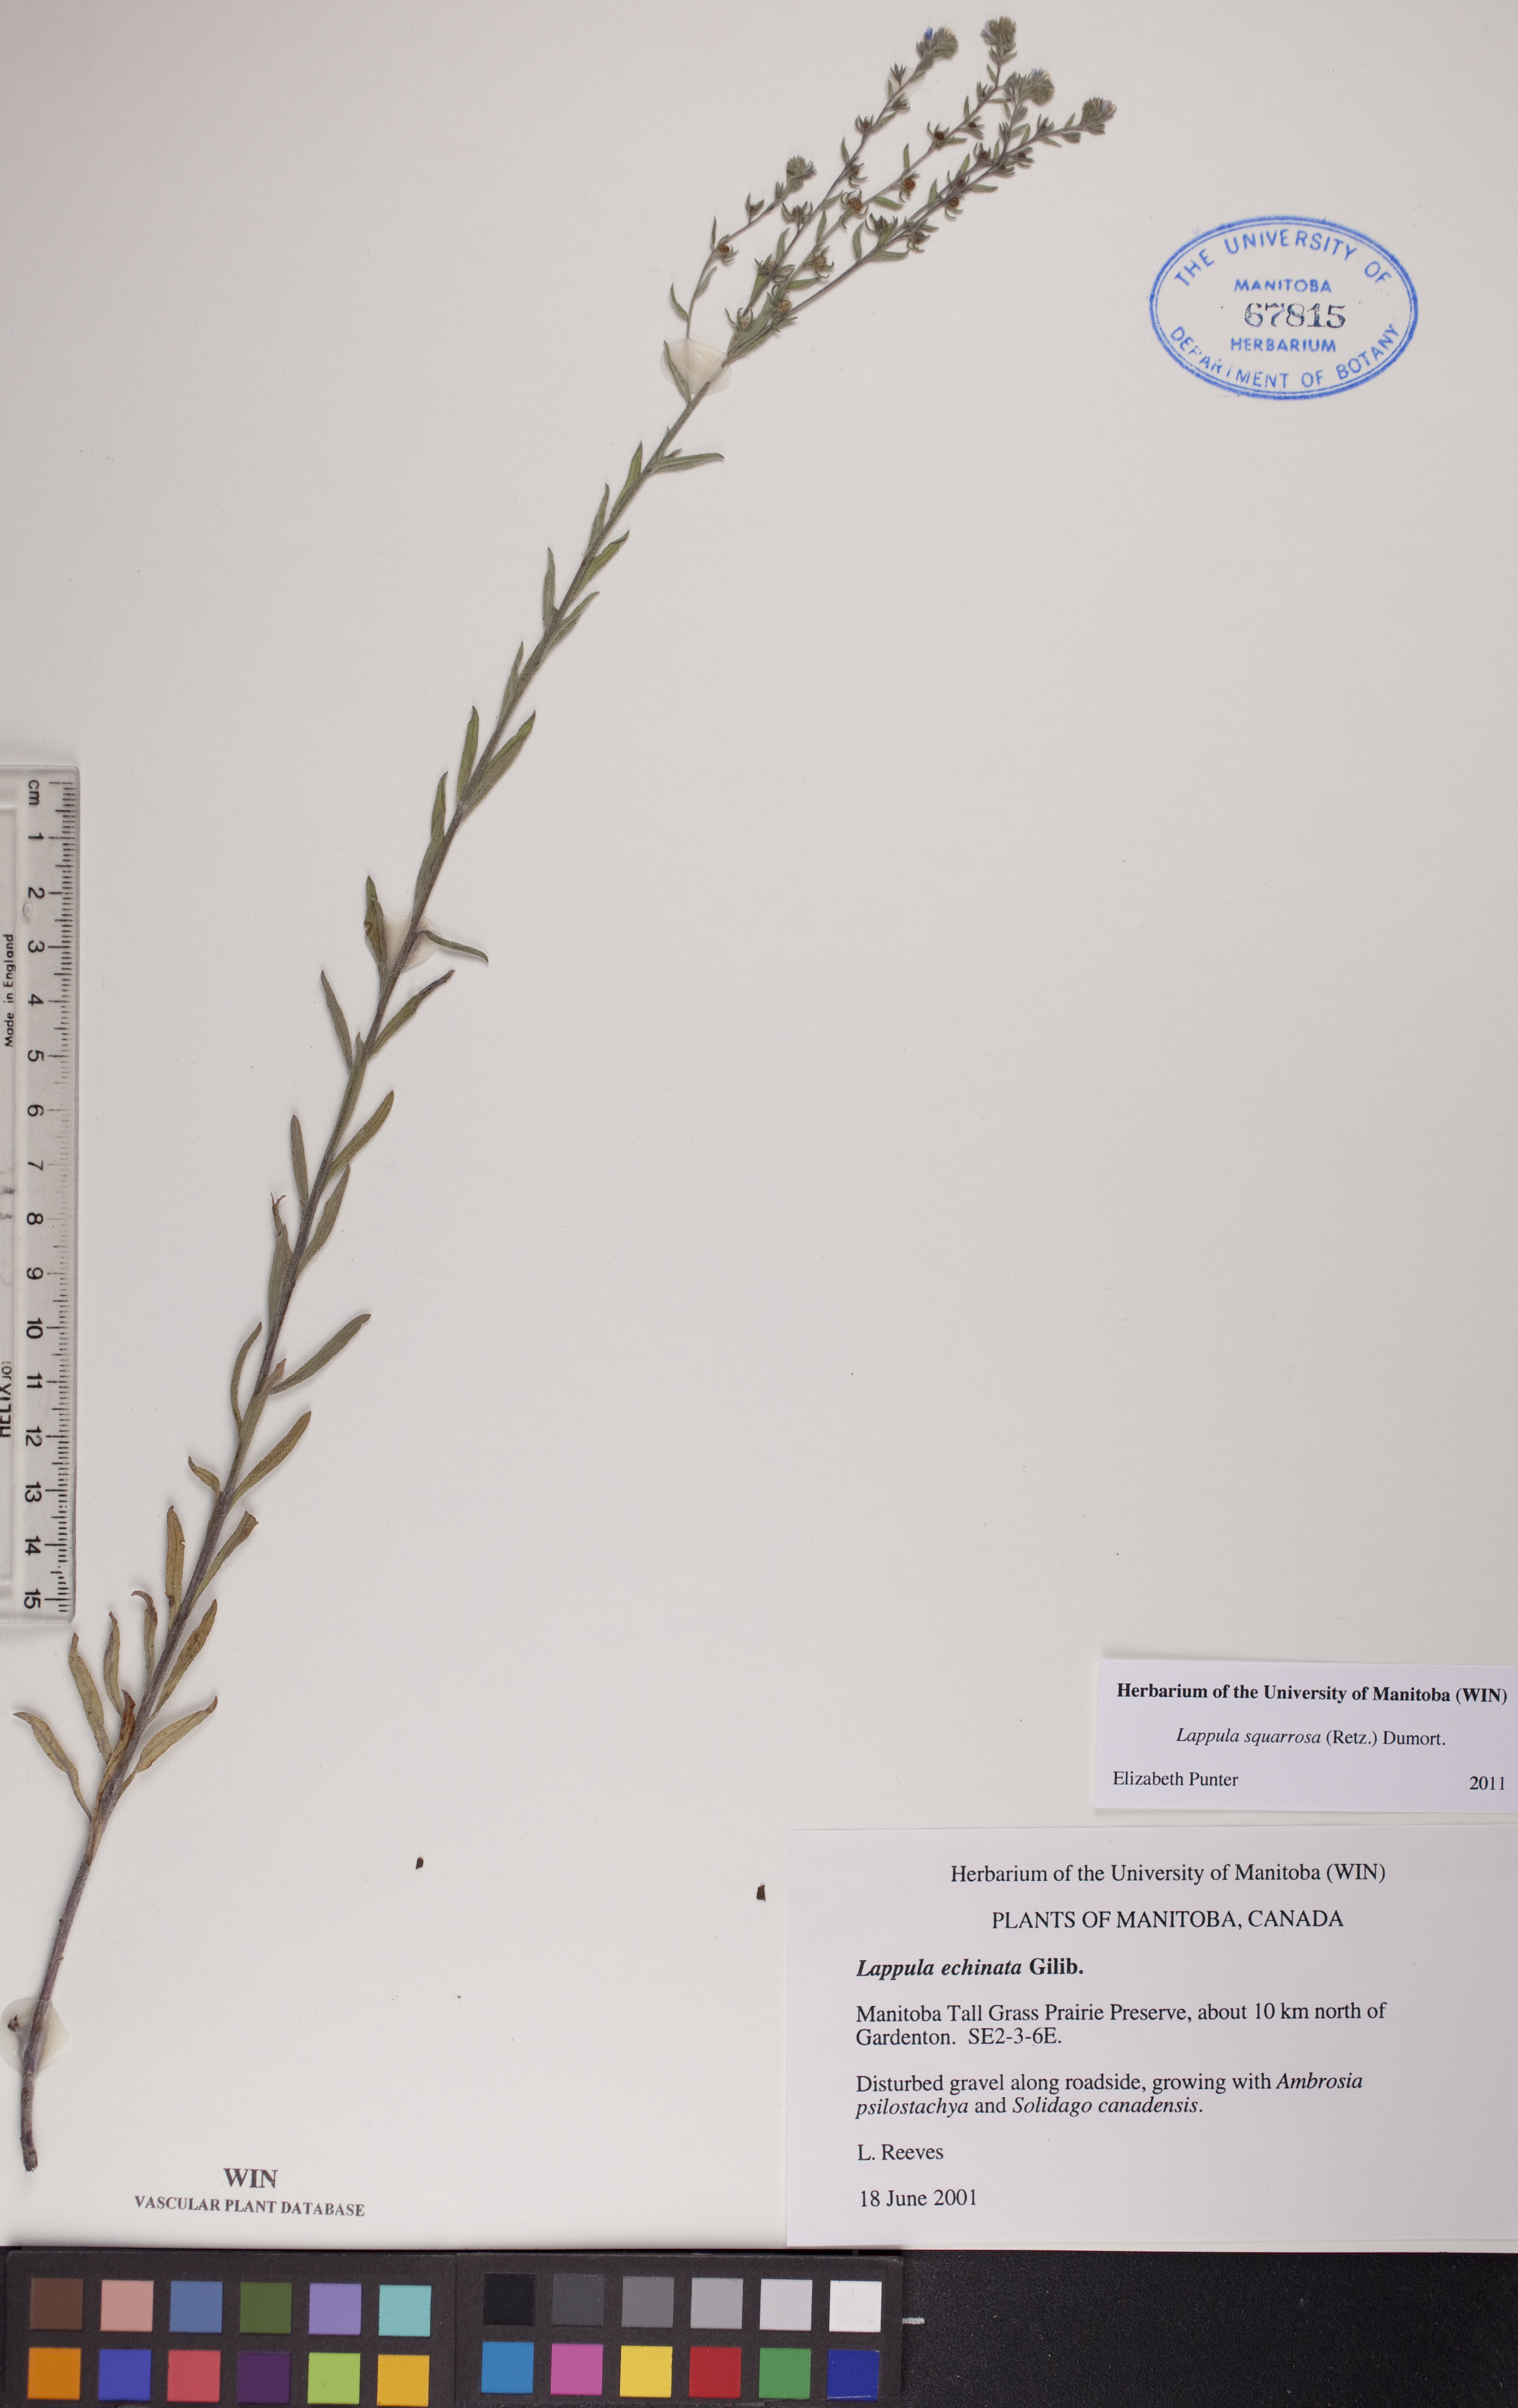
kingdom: Plantae
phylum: Tracheophyta
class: Magnoliopsida
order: Boraginales
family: Boraginaceae
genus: Lappula
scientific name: Lappula squarrosa
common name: European stickseed
